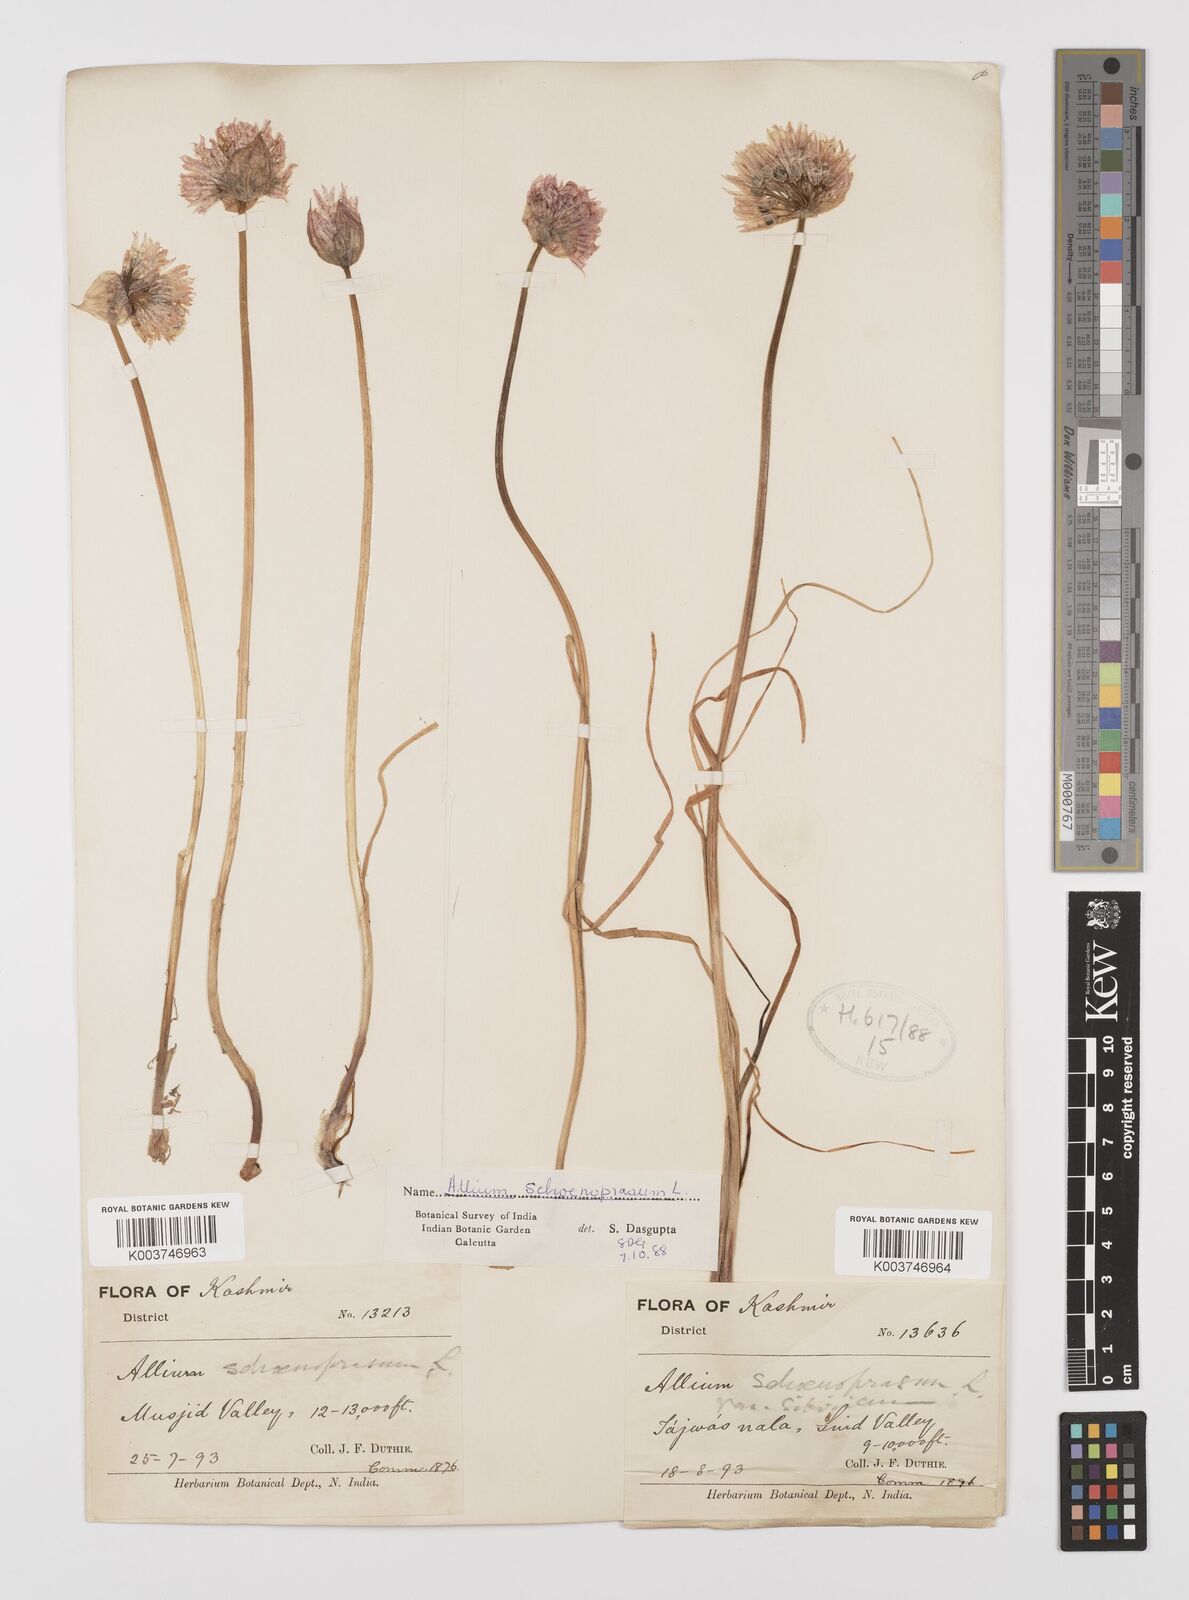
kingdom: Plantae
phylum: Tracheophyta
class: Liliopsida
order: Asparagales
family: Amaryllidaceae
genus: Allium
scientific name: Allium schoenoprasum
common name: Chives
